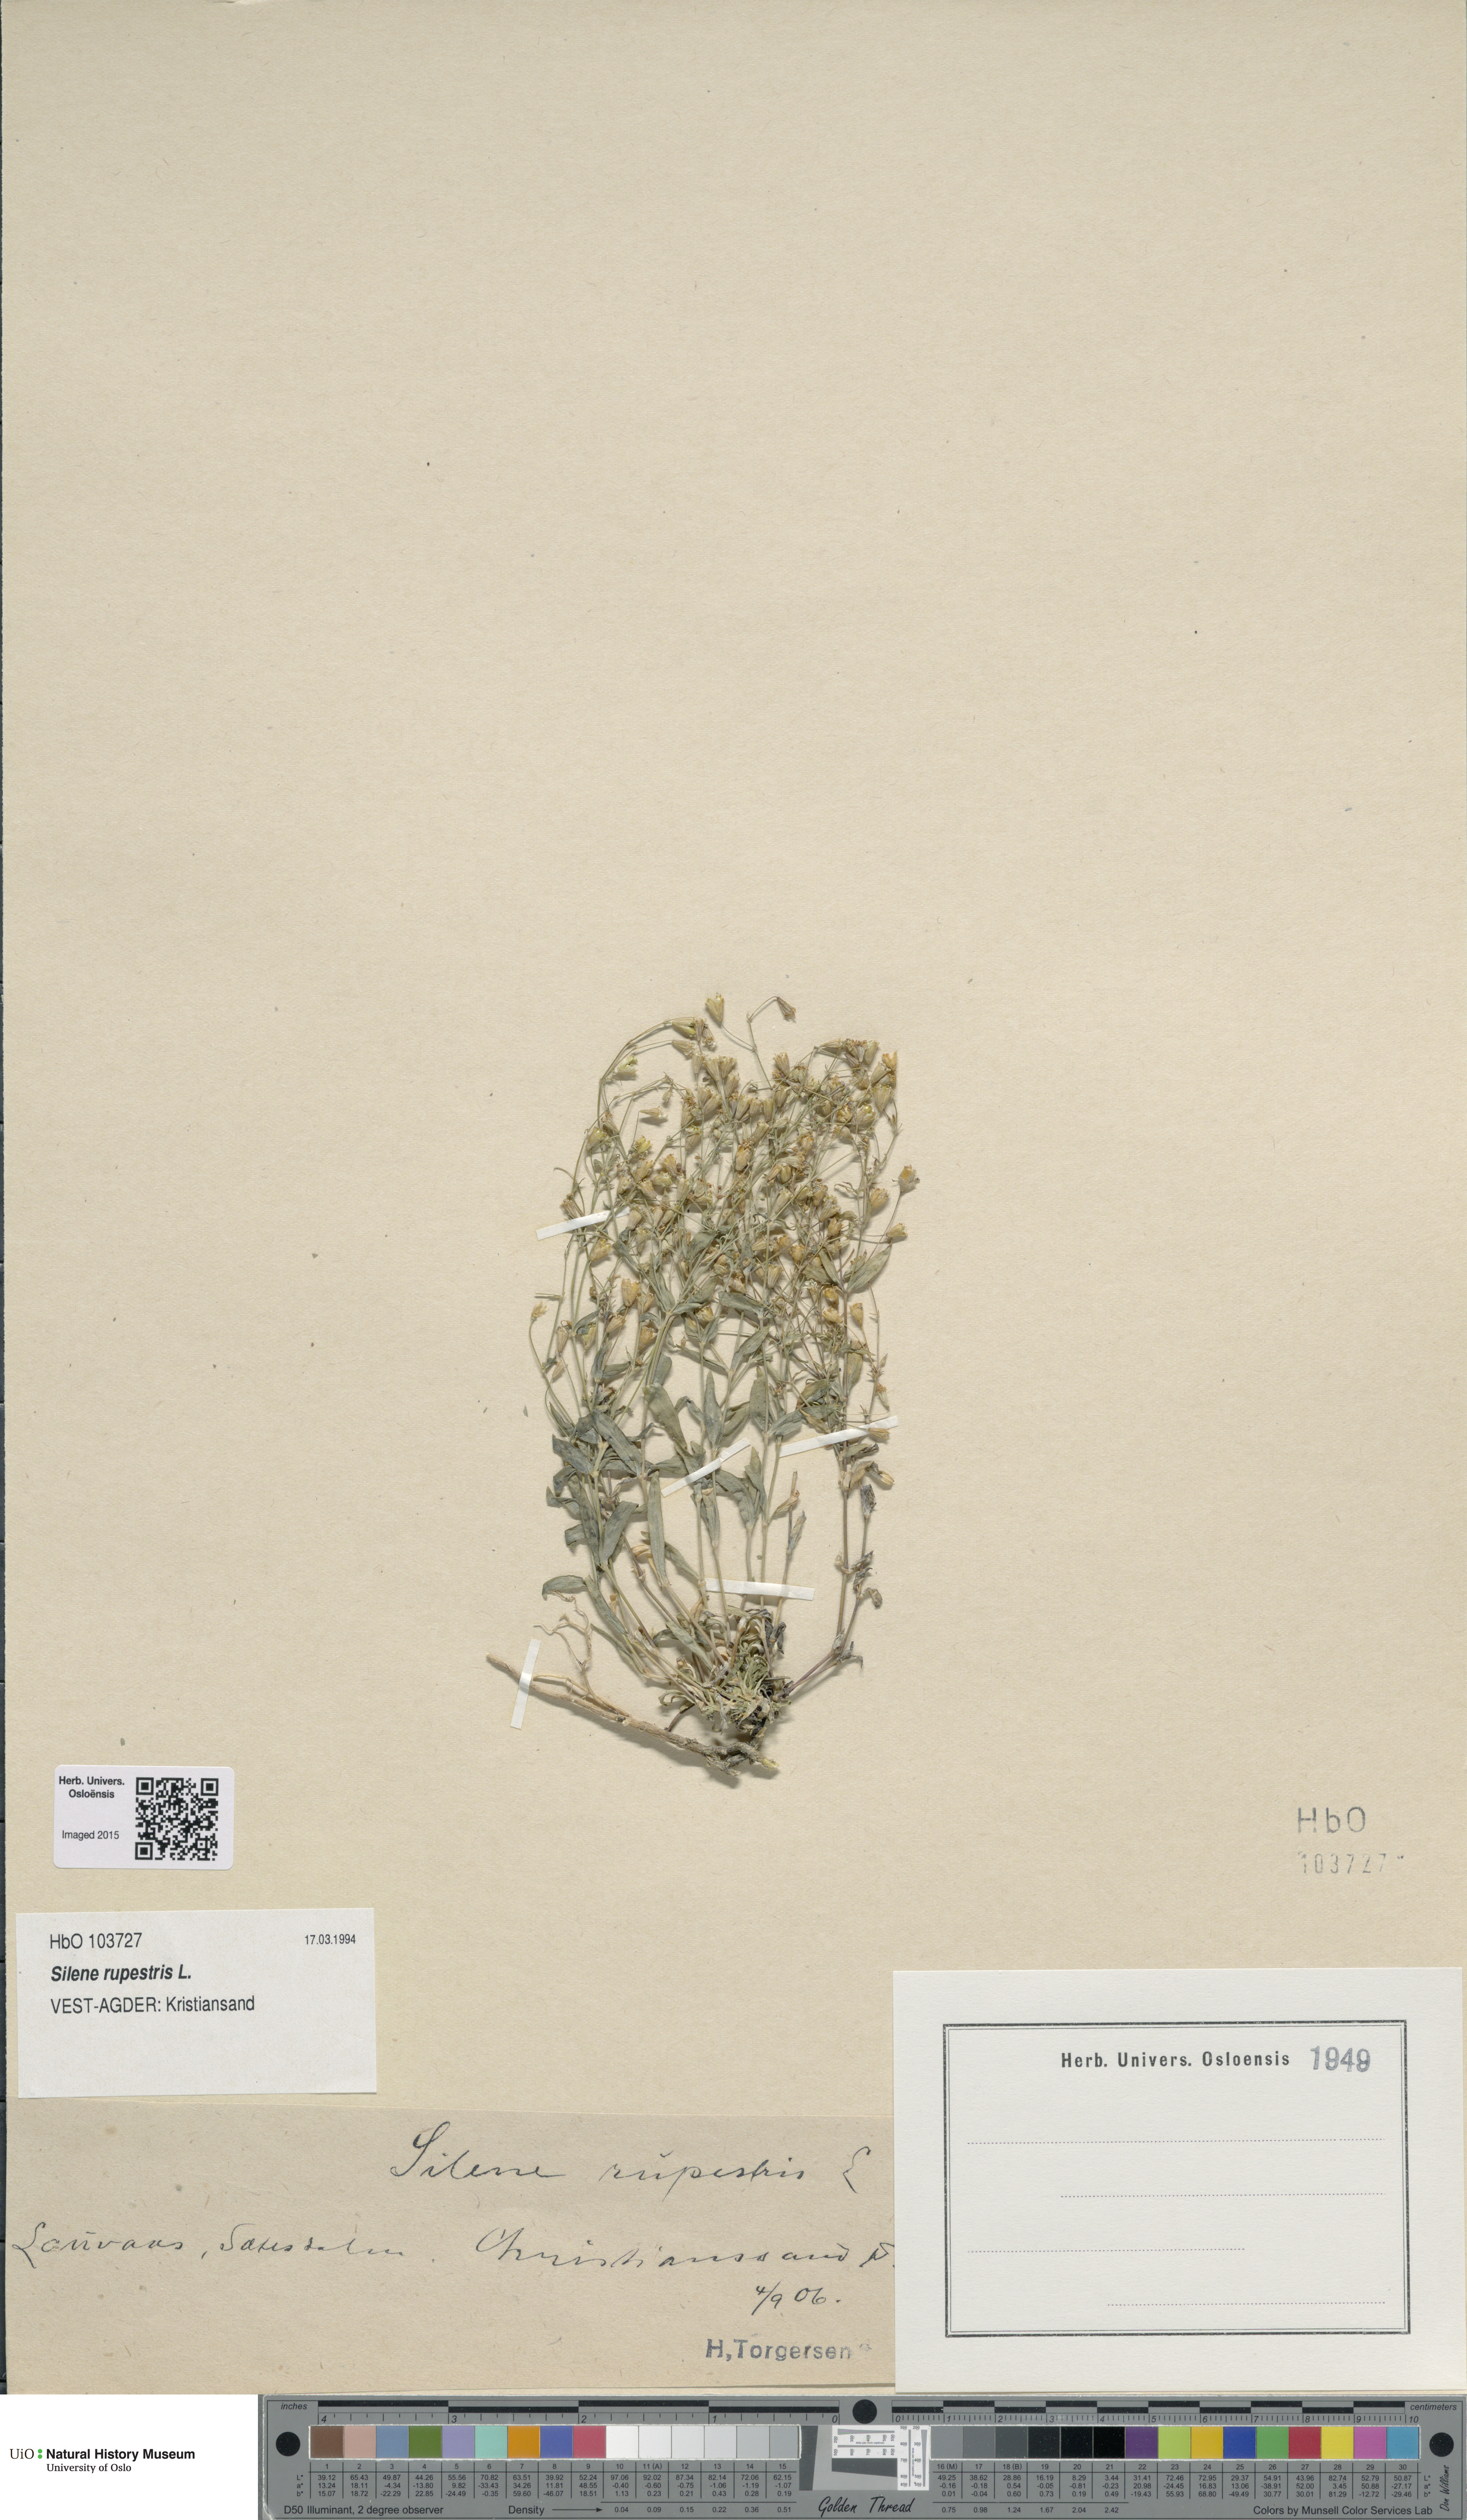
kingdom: Plantae
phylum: Tracheophyta
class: Magnoliopsida
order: Caryophyllales
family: Caryophyllaceae
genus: Atocion
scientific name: Atocion rupestre
